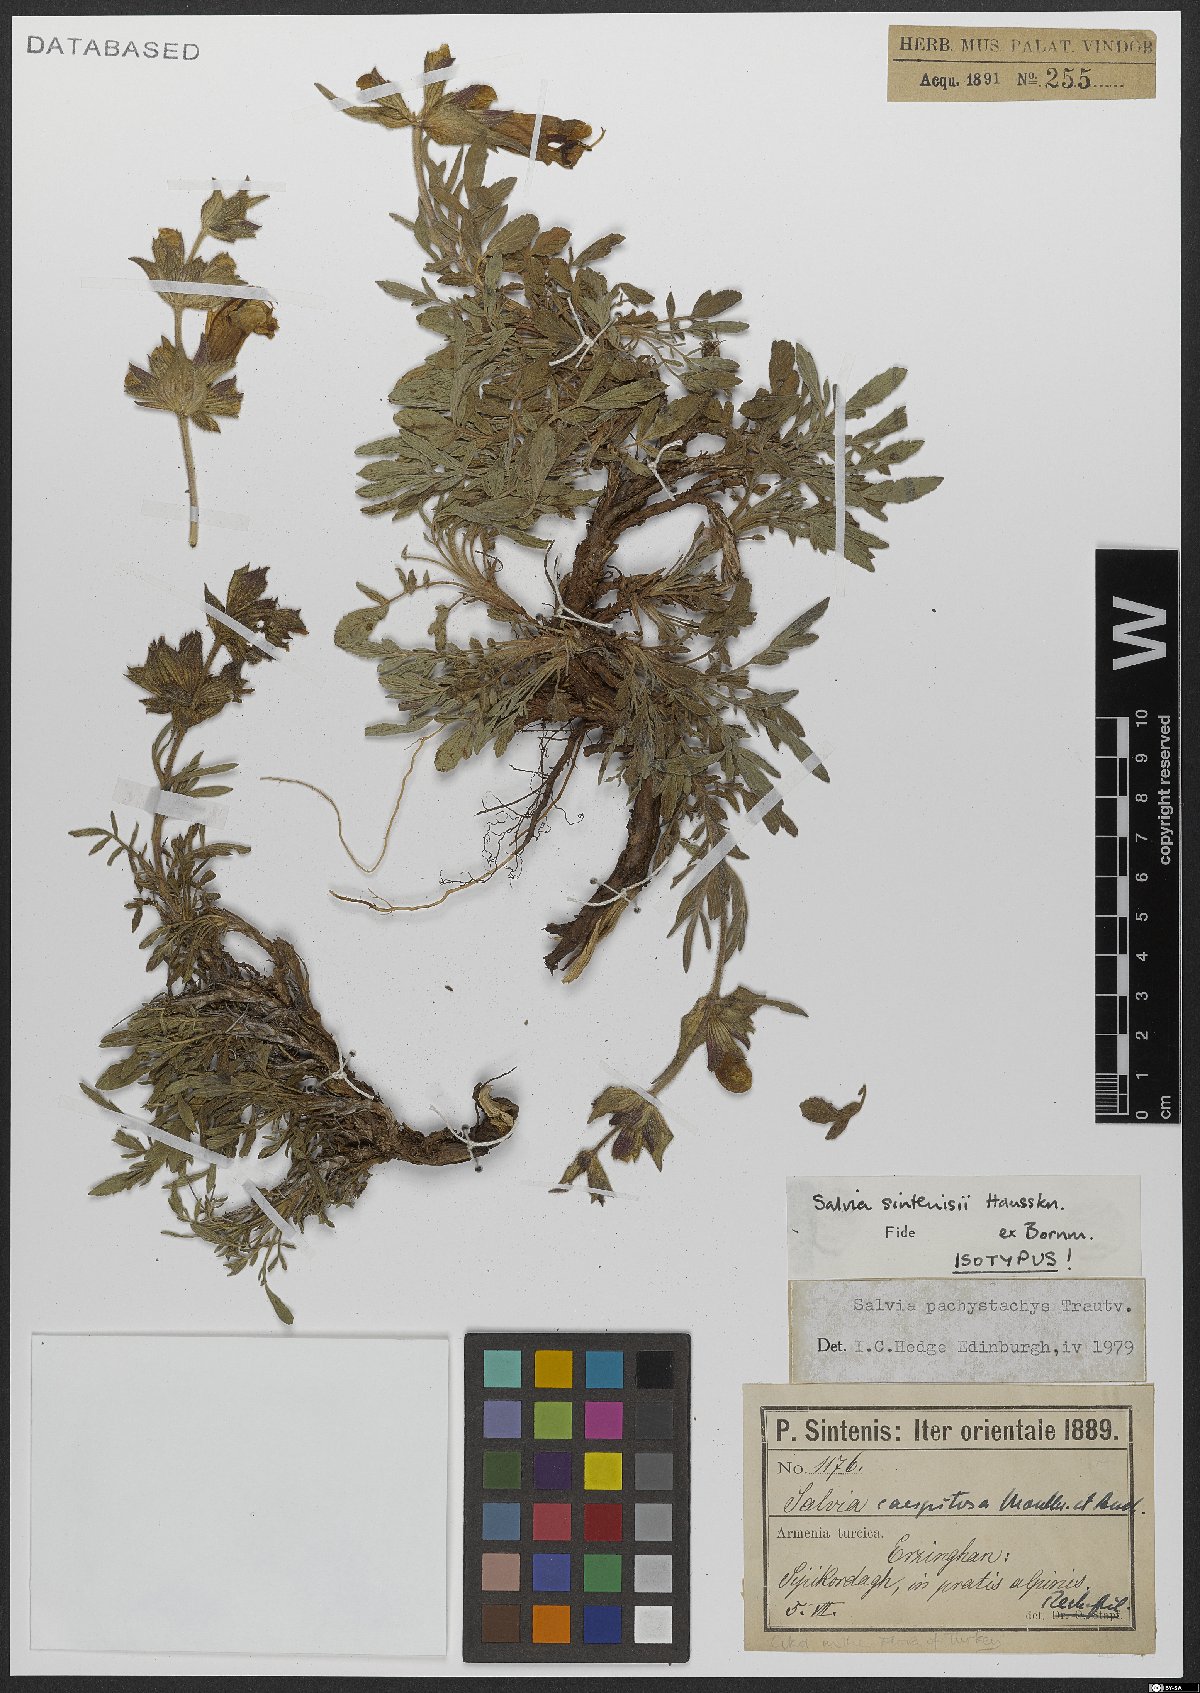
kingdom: Plantae
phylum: Tracheophyta
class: Magnoliopsida
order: Lamiales
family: Lamiaceae
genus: Salvia
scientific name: Salvia pachystachya
